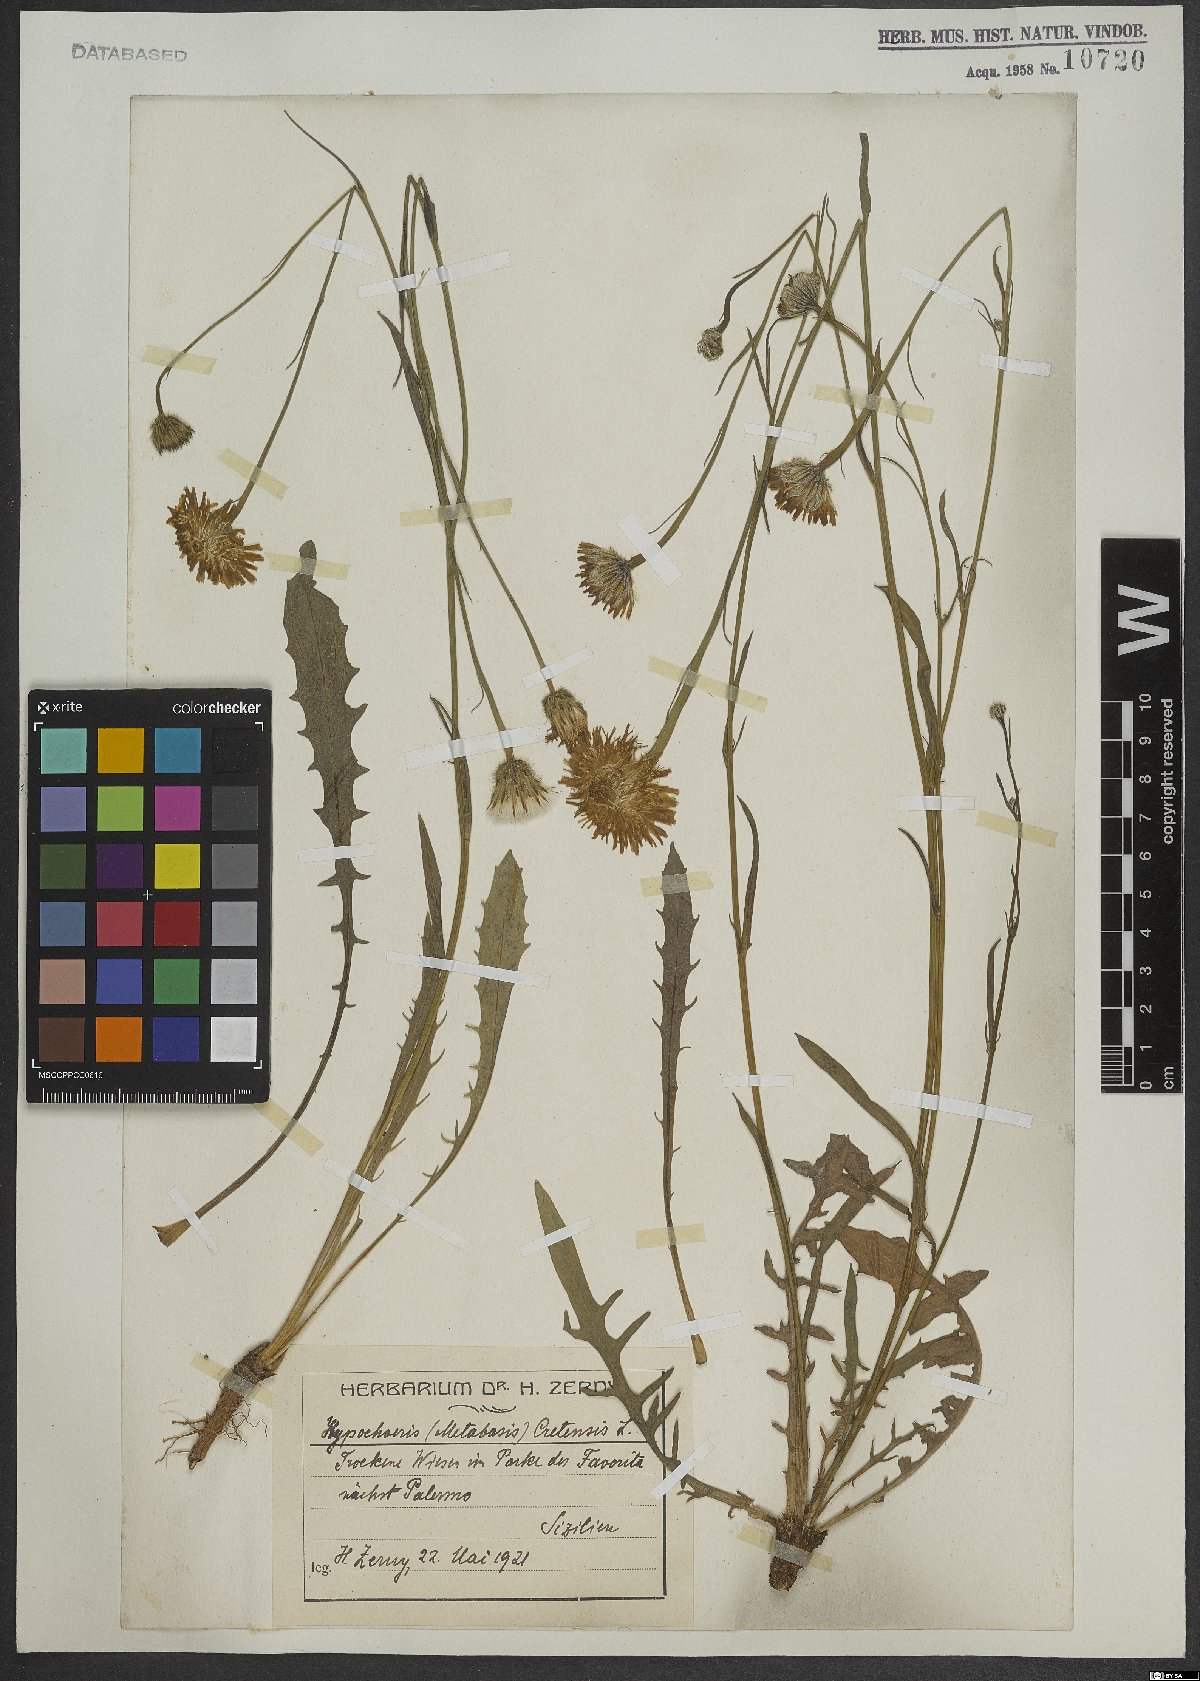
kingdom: Plantae
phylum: Tracheophyta
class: Magnoliopsida
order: Asterales
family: Asteraceae
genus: Hypochaeris
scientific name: Hypochaeris cretensis
